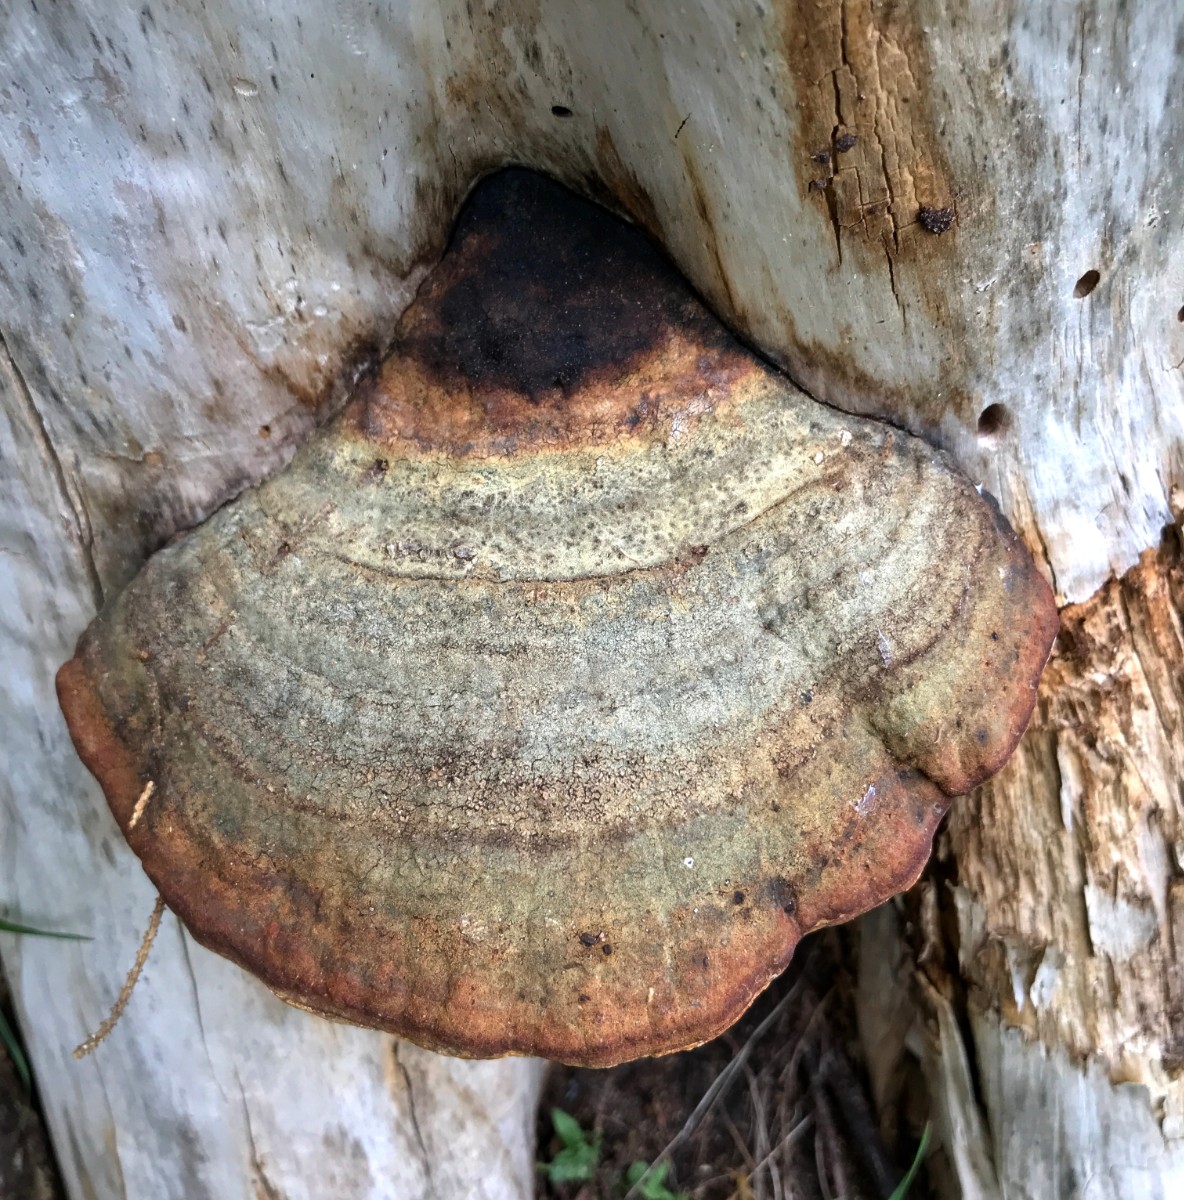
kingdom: Fungi
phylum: Basidiomycota
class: Agaricomycetes
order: Polyporales
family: Fomitopsidaceae
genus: Fomitopsis
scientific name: Fomitopsis pinicola
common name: randbæltet hovporesvamp
